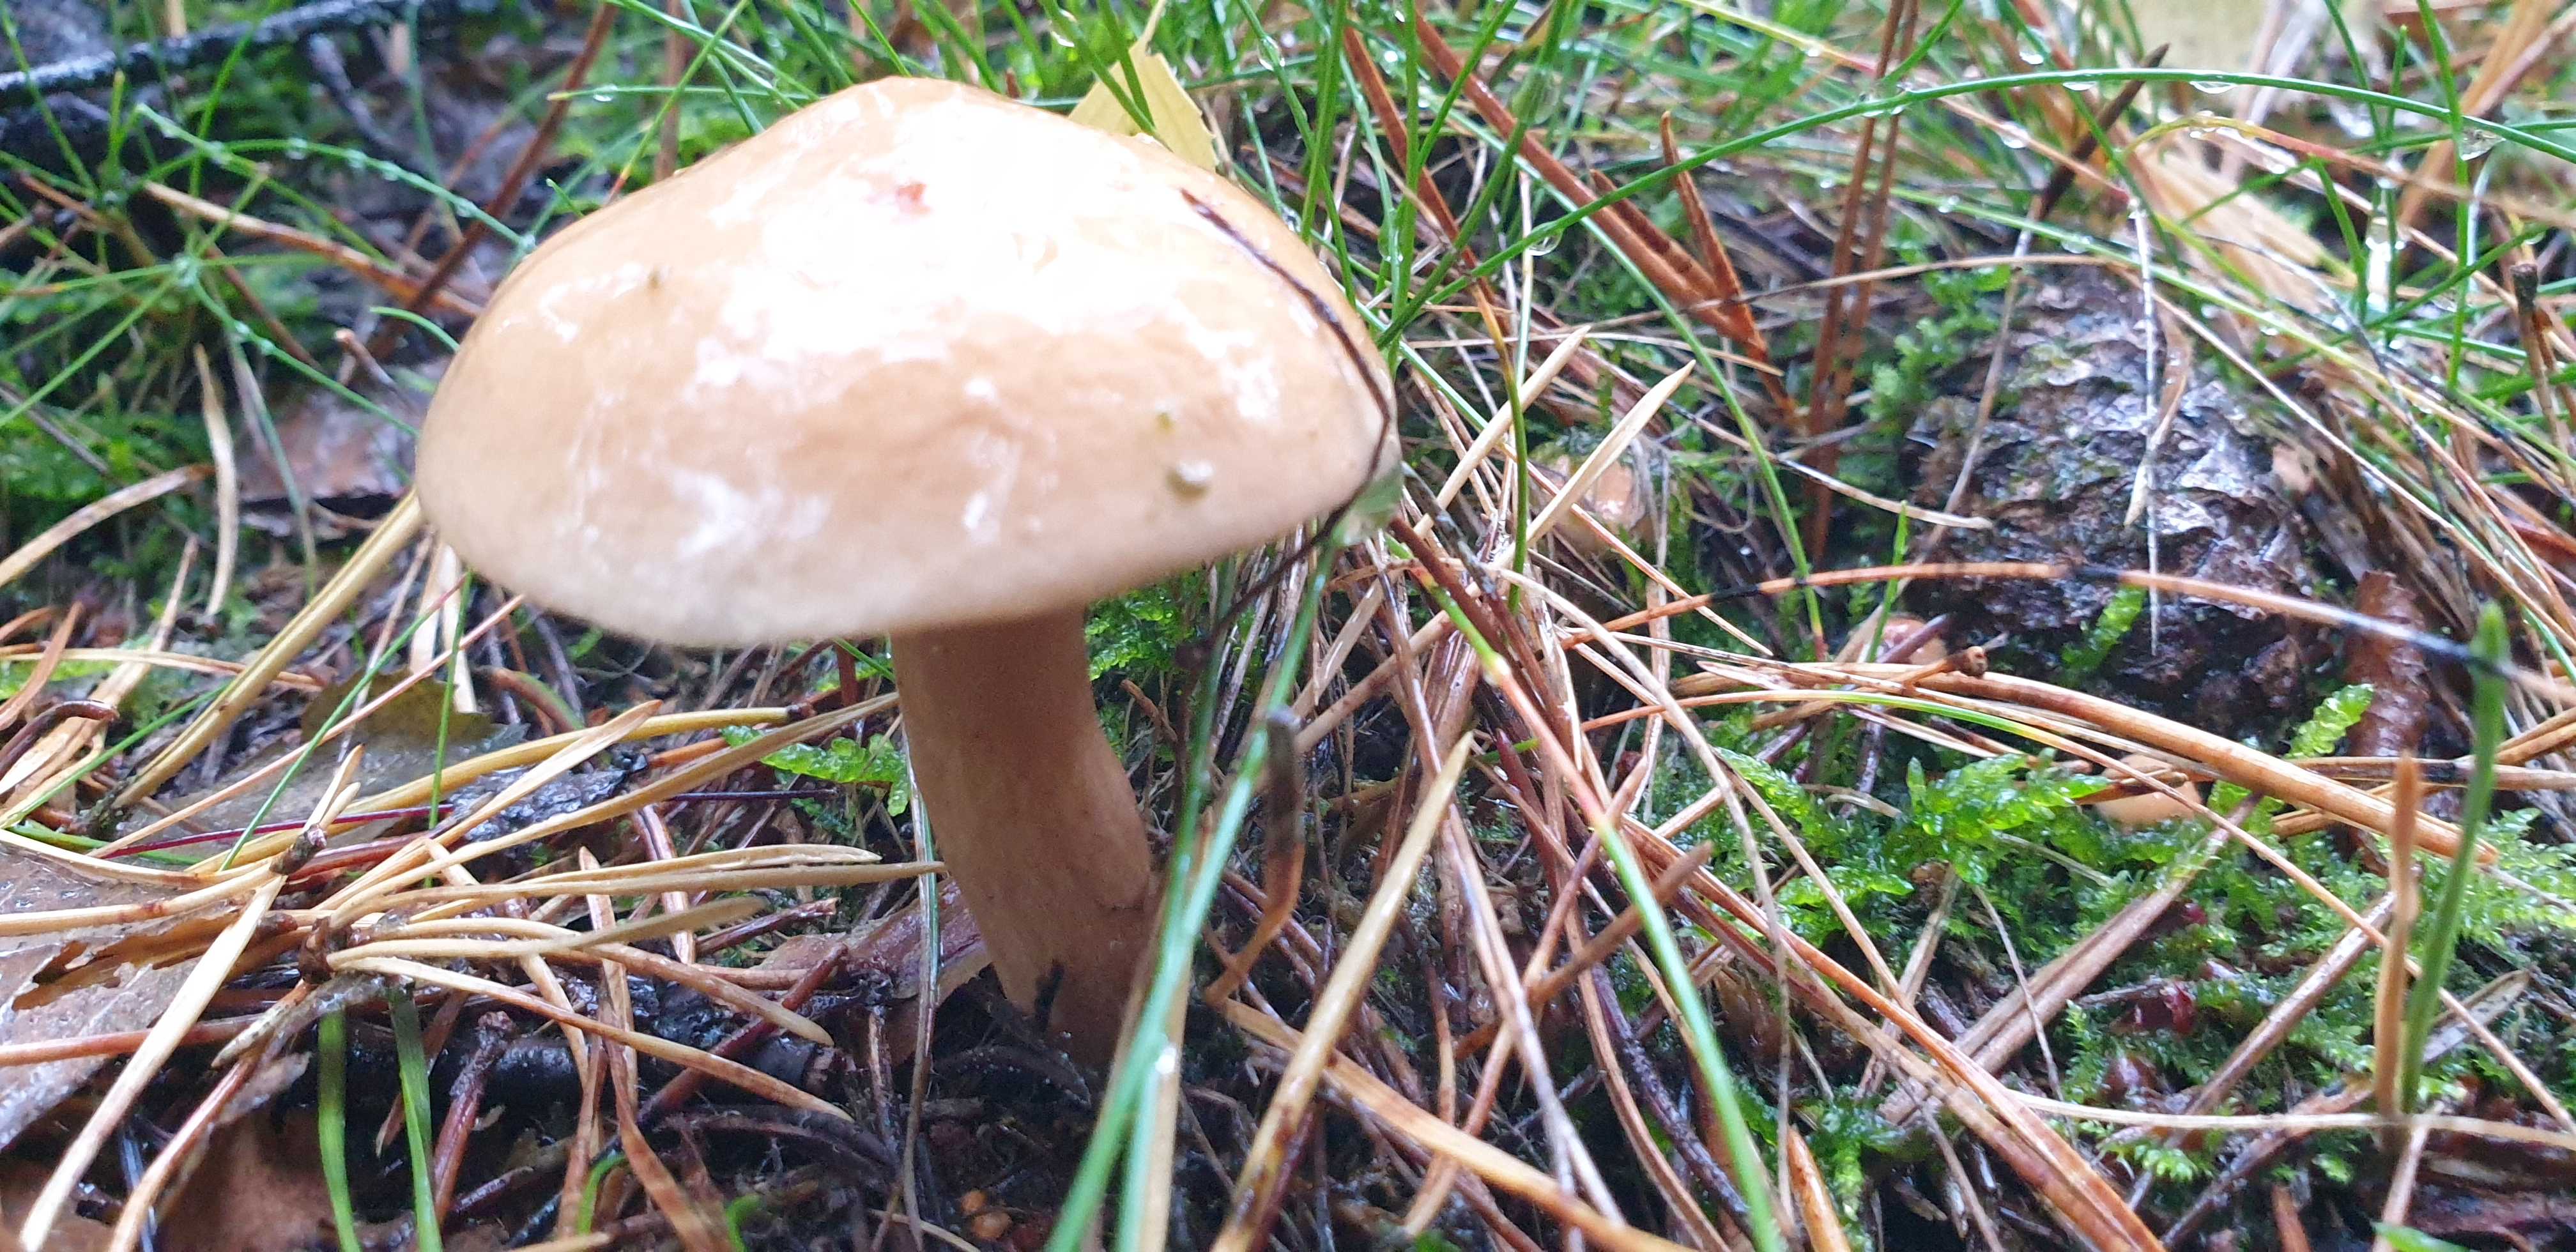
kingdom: Fungi
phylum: Basidiomycota
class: Agaricomycetes
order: Boletales
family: Suillaceae
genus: Suillus
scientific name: Suillus bovinus
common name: grovporet slimrørhat
